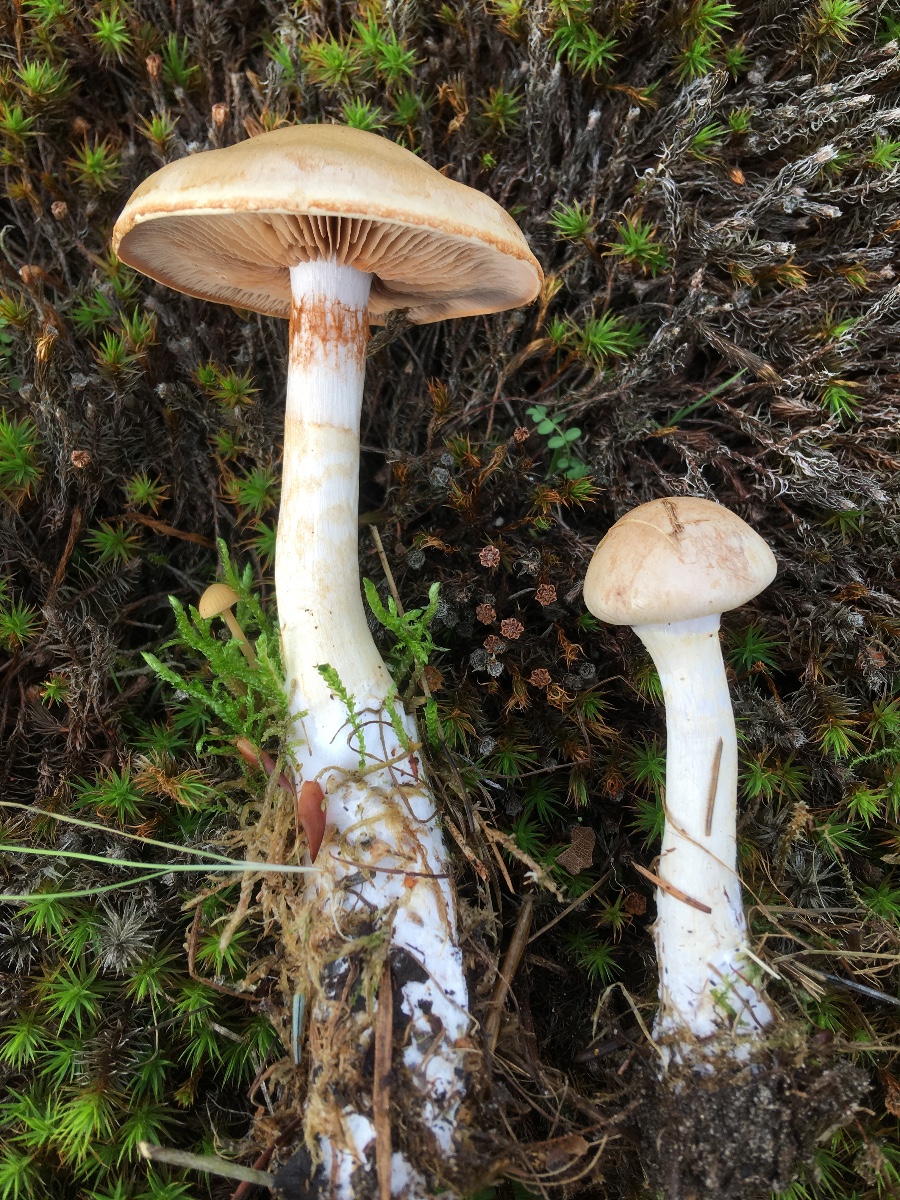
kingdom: Fungi
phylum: Basidiomycota
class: Agaricomycetes
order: Agaricales
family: Cortinariaceae
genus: Cortinarius
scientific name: Cortinarius
